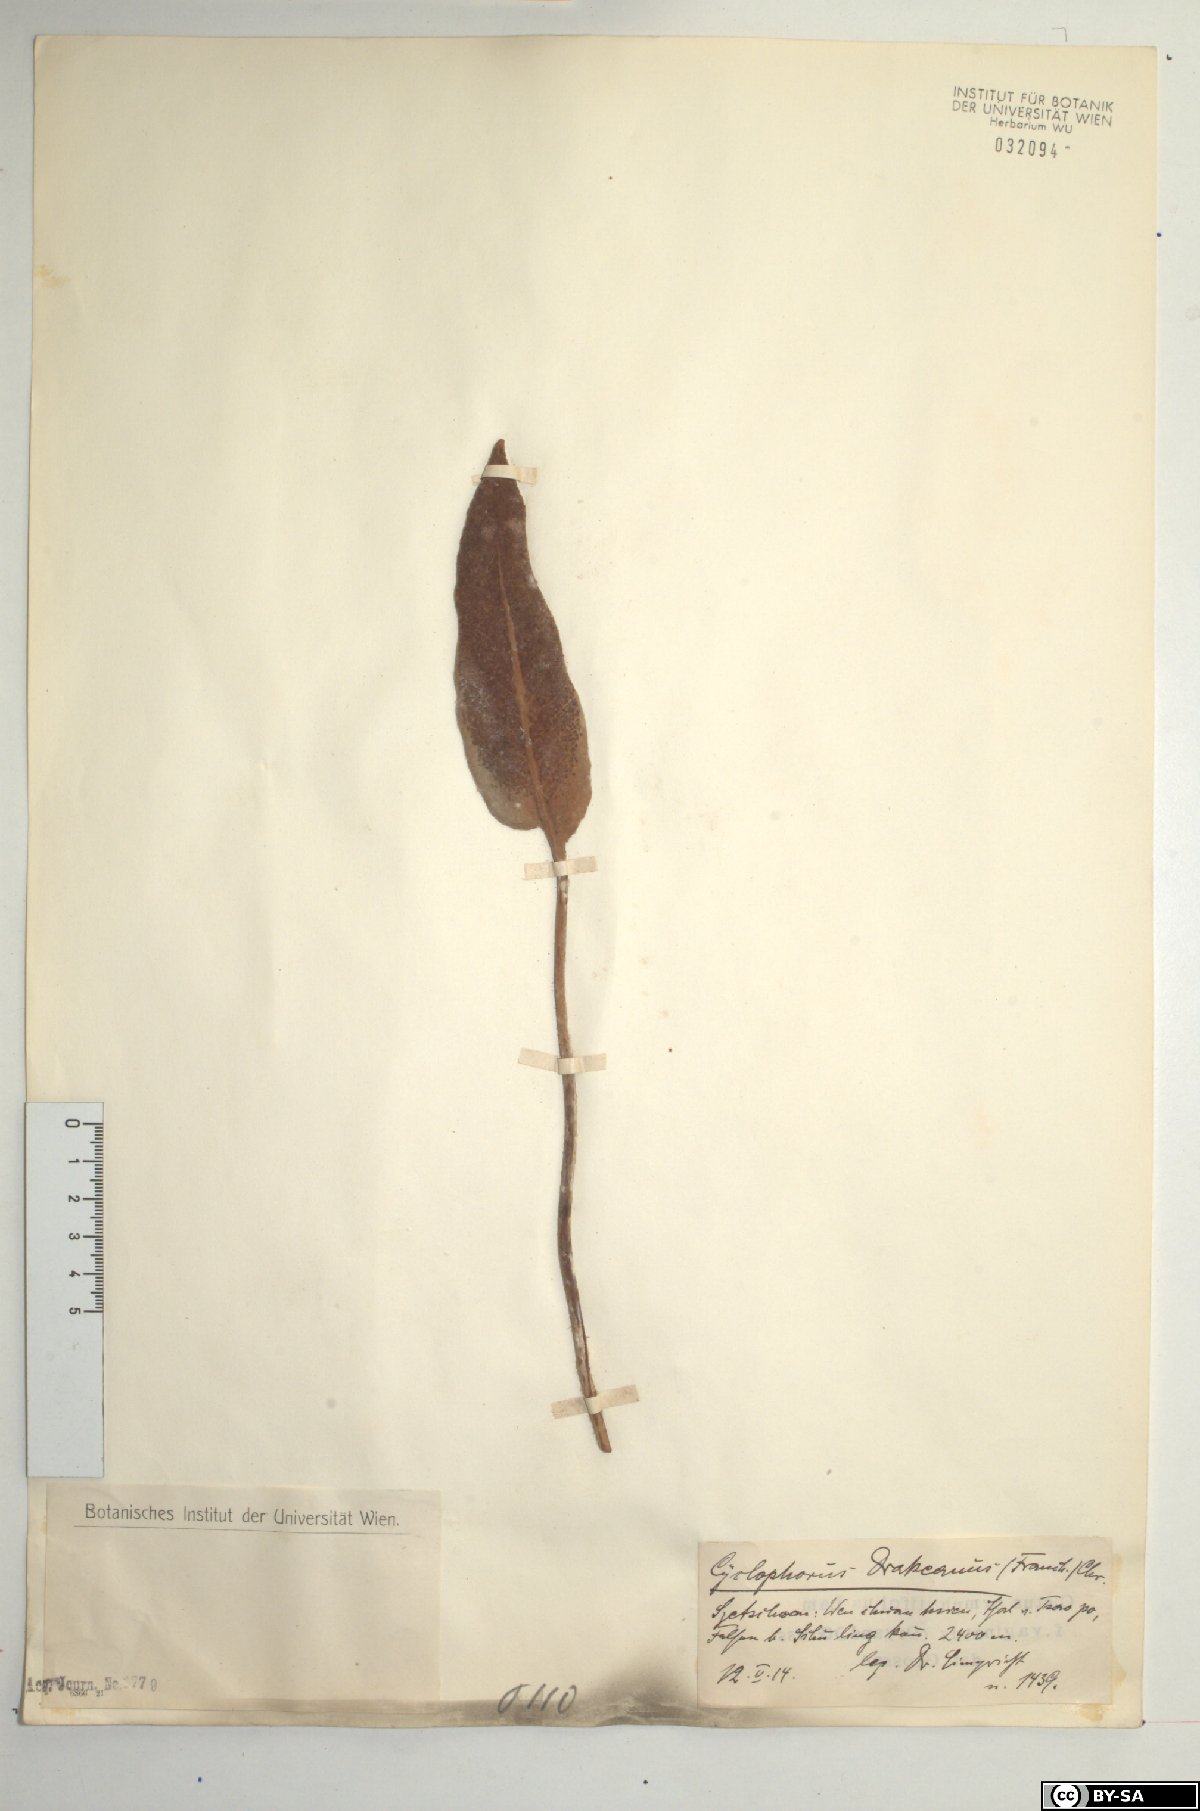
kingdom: Plantae
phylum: Tracheophyta
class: Polypodiopsida
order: Polypodiales
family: Polypodiaceae
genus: Pyrrosia
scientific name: Pyrrosia drakeana
